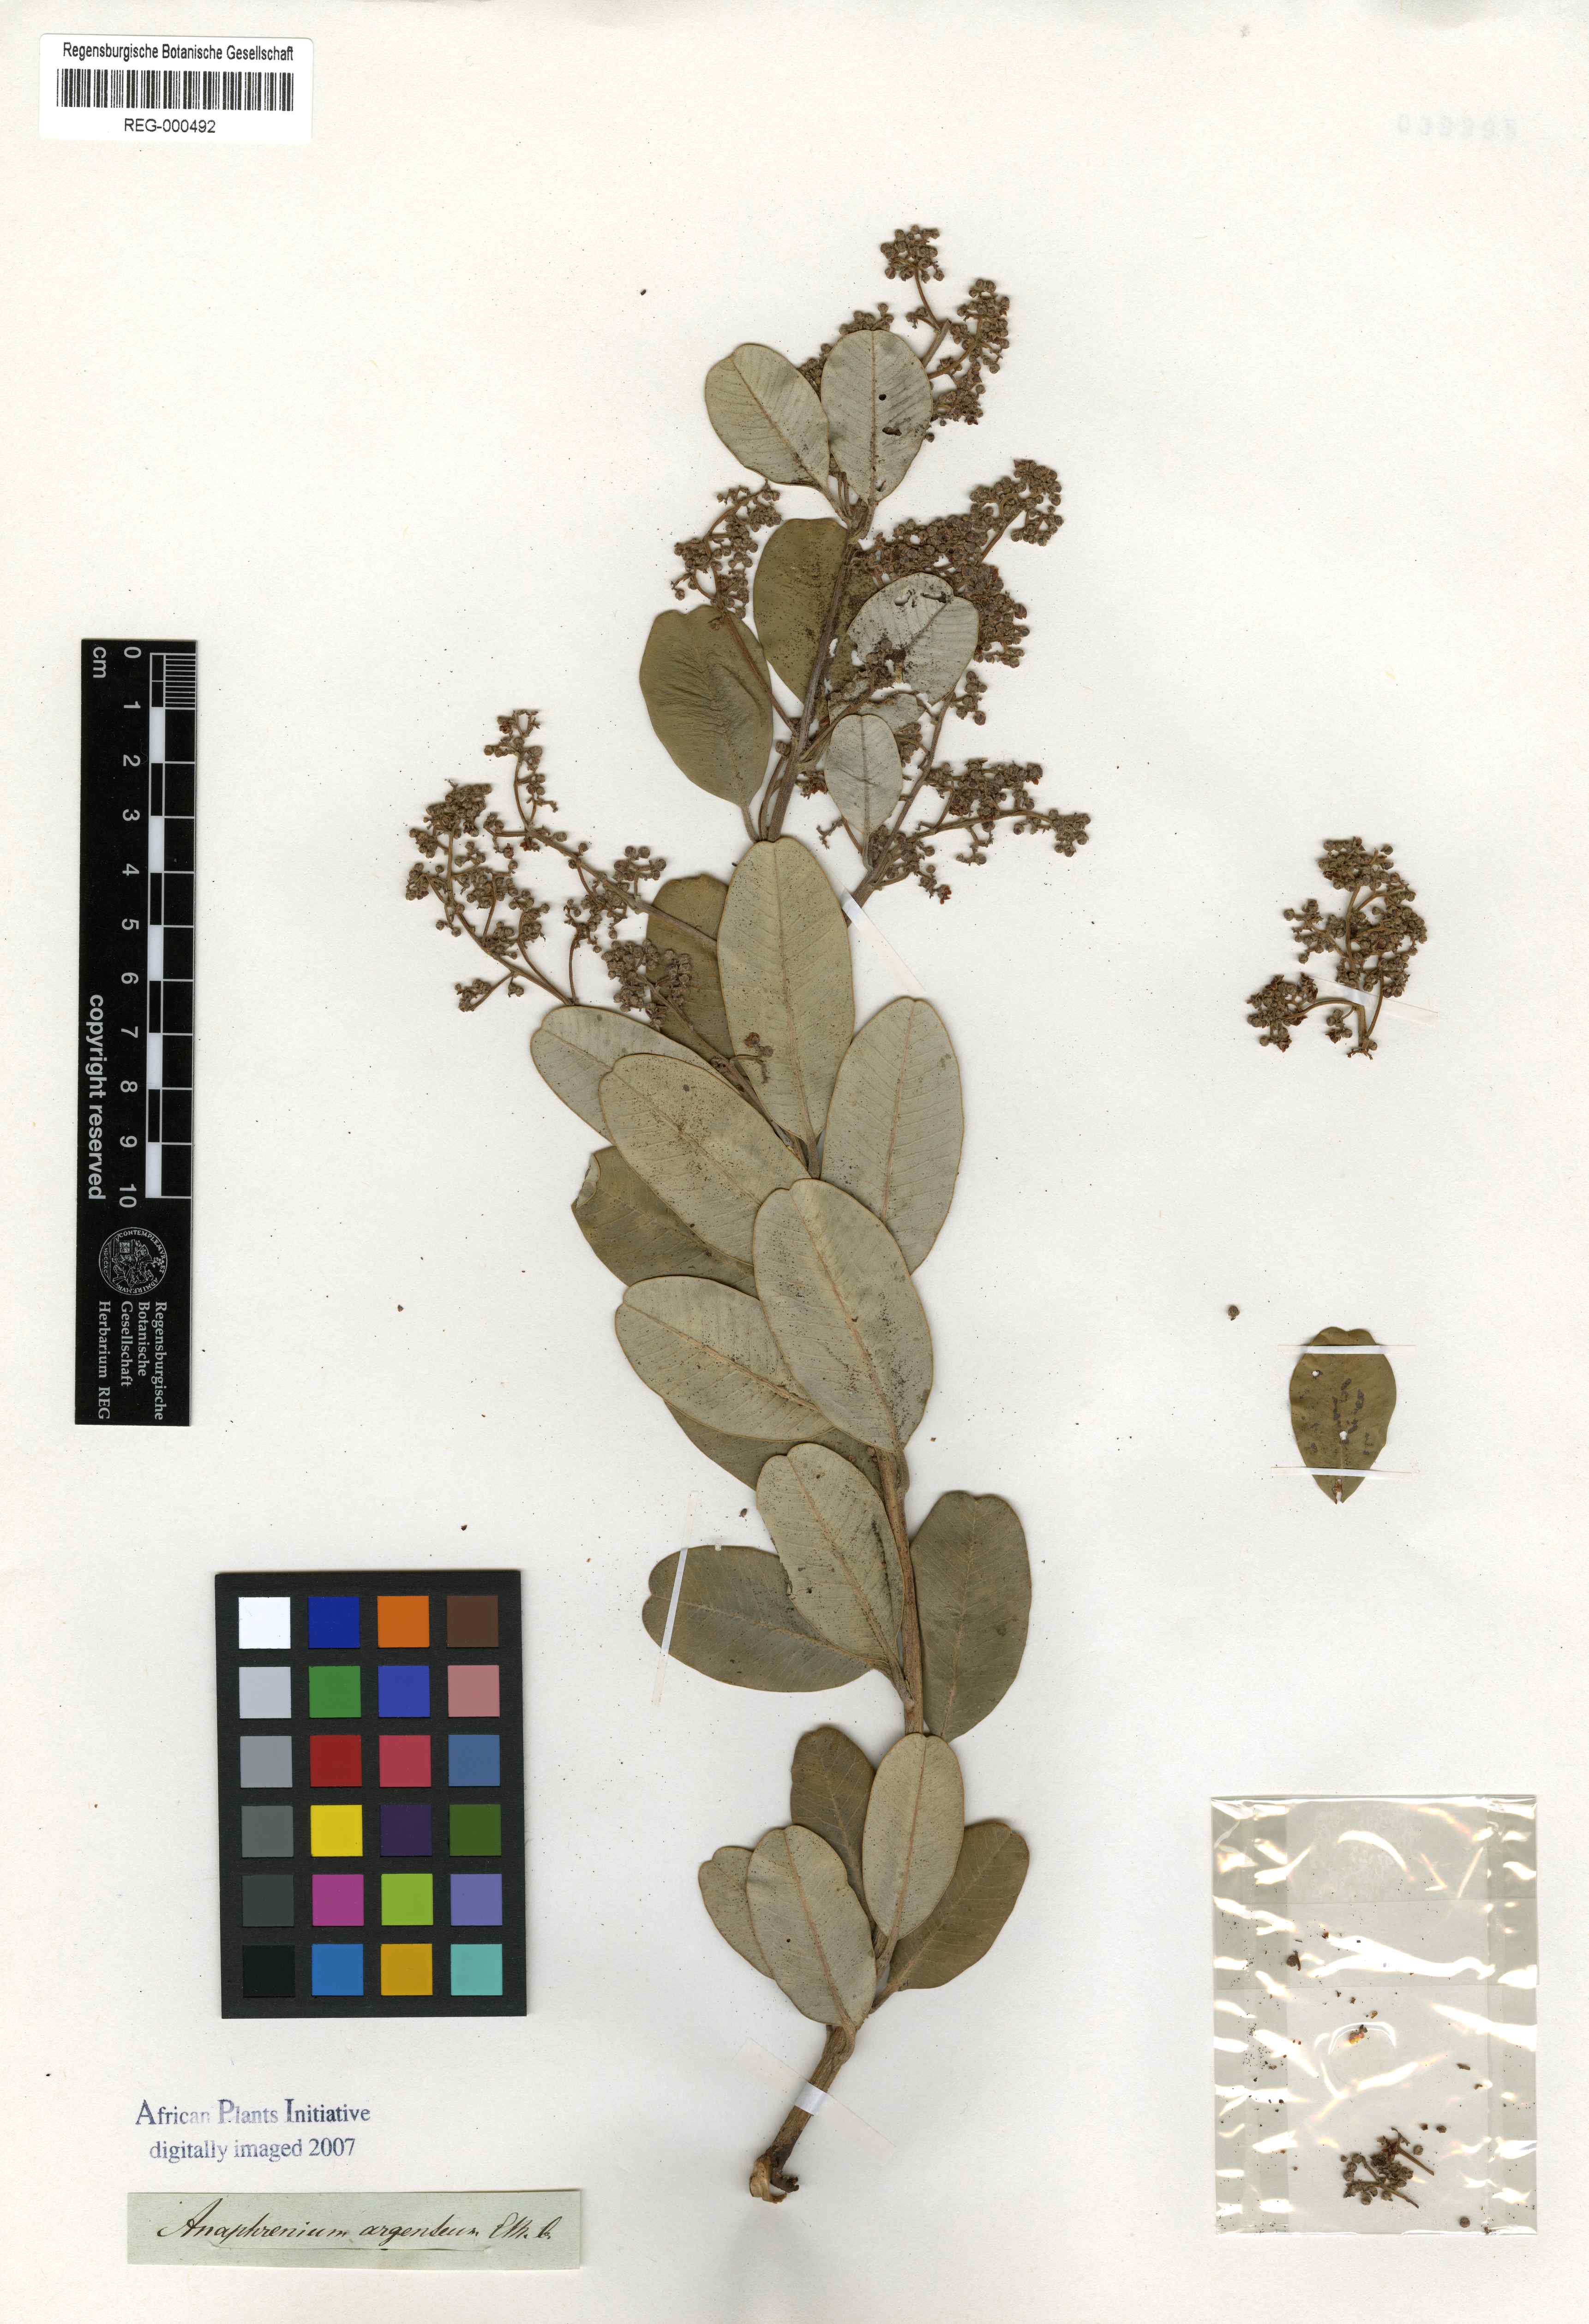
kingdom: Plantae
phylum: Tracheophyta
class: Magnoliopsida
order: Sapindales
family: Anacardiaceae
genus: Heeria
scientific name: Heeria argentea
